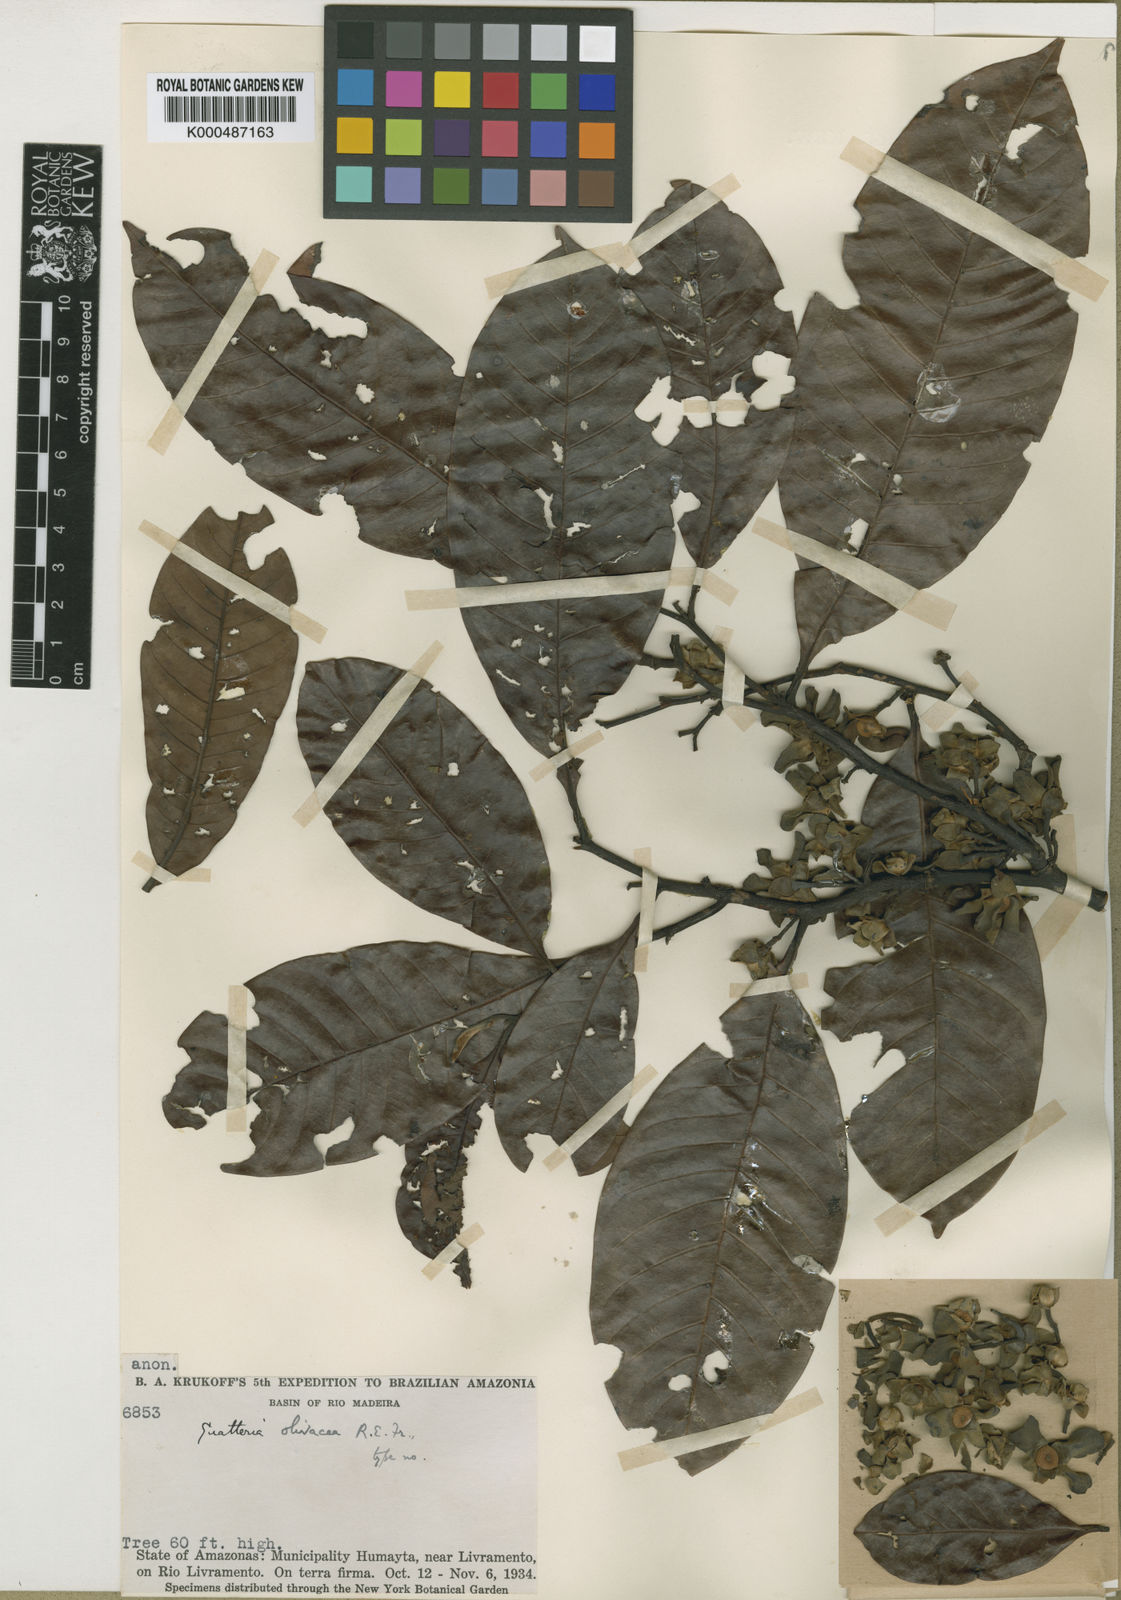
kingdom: Plantae
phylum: Tracheophyta
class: Magnoliopsida
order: Magnoliales
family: Annonaceae
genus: Guatteria
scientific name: Guatteria punctata
